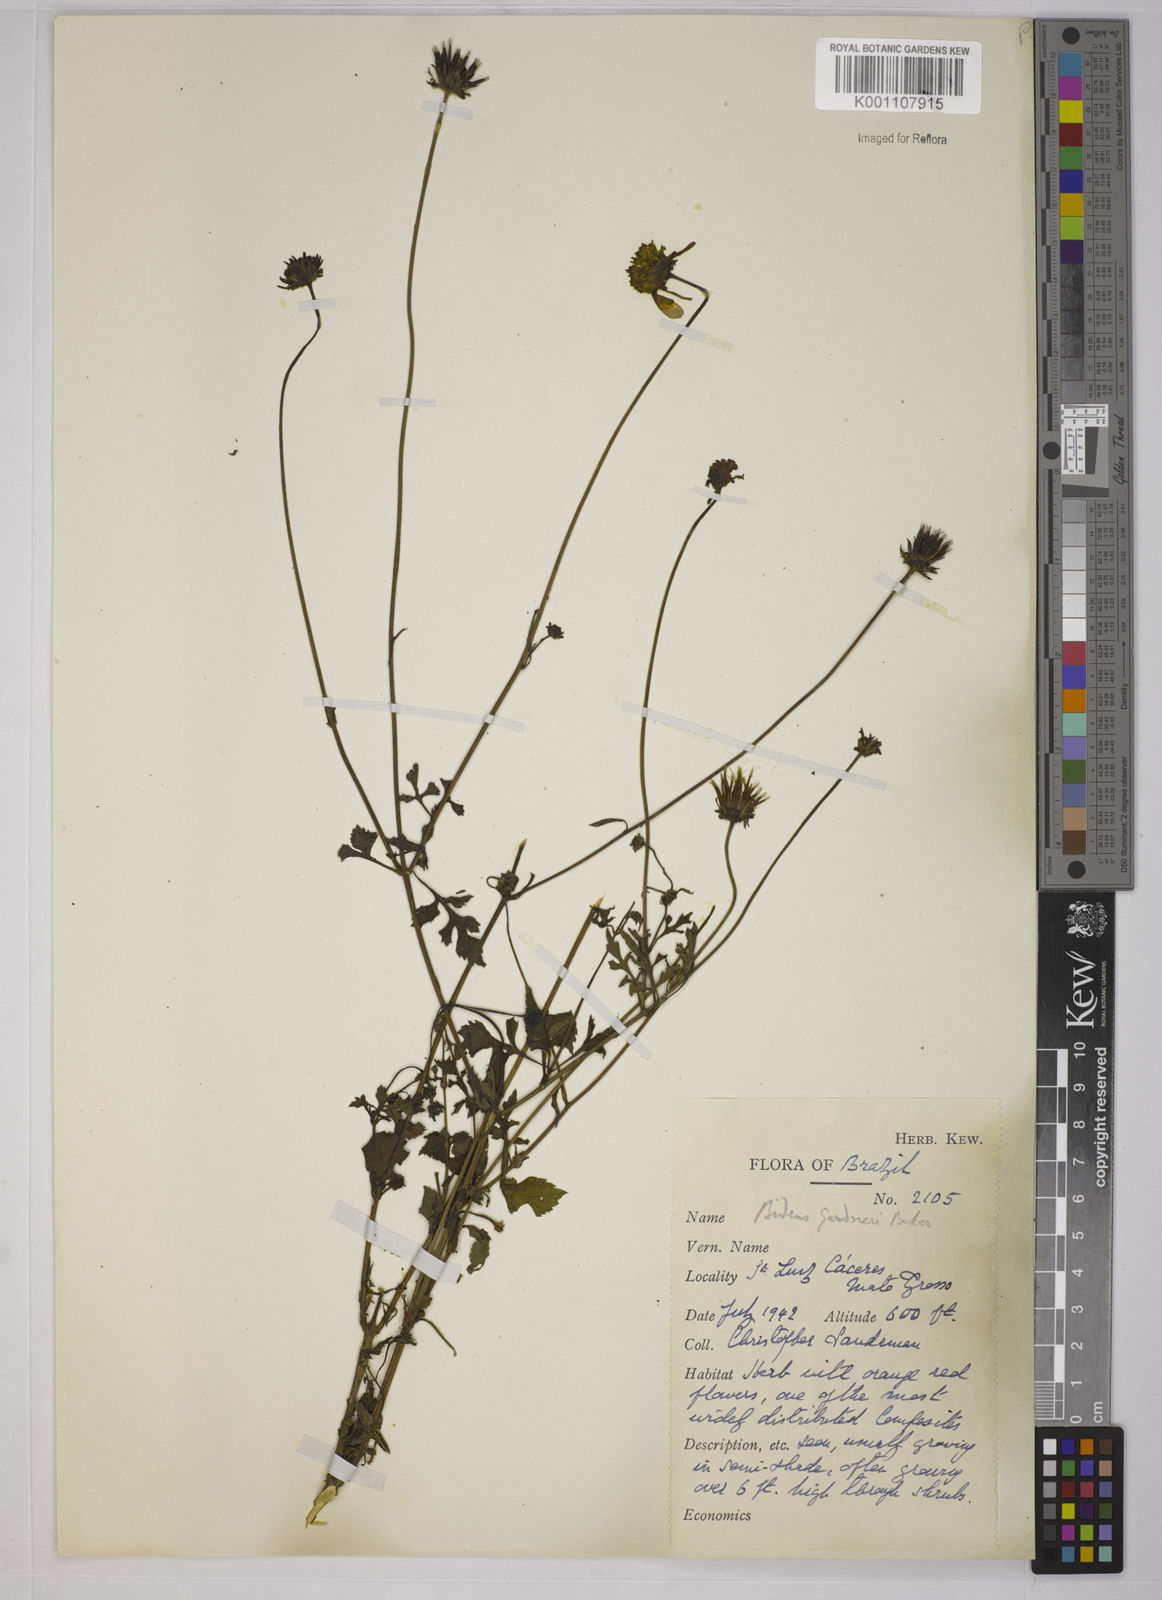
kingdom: Plantae
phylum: Tracheophyta
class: Magnoliopsida
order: Asterales
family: Asteraceae
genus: Bidens
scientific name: Bidens gardneri
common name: Ridge beggartick
